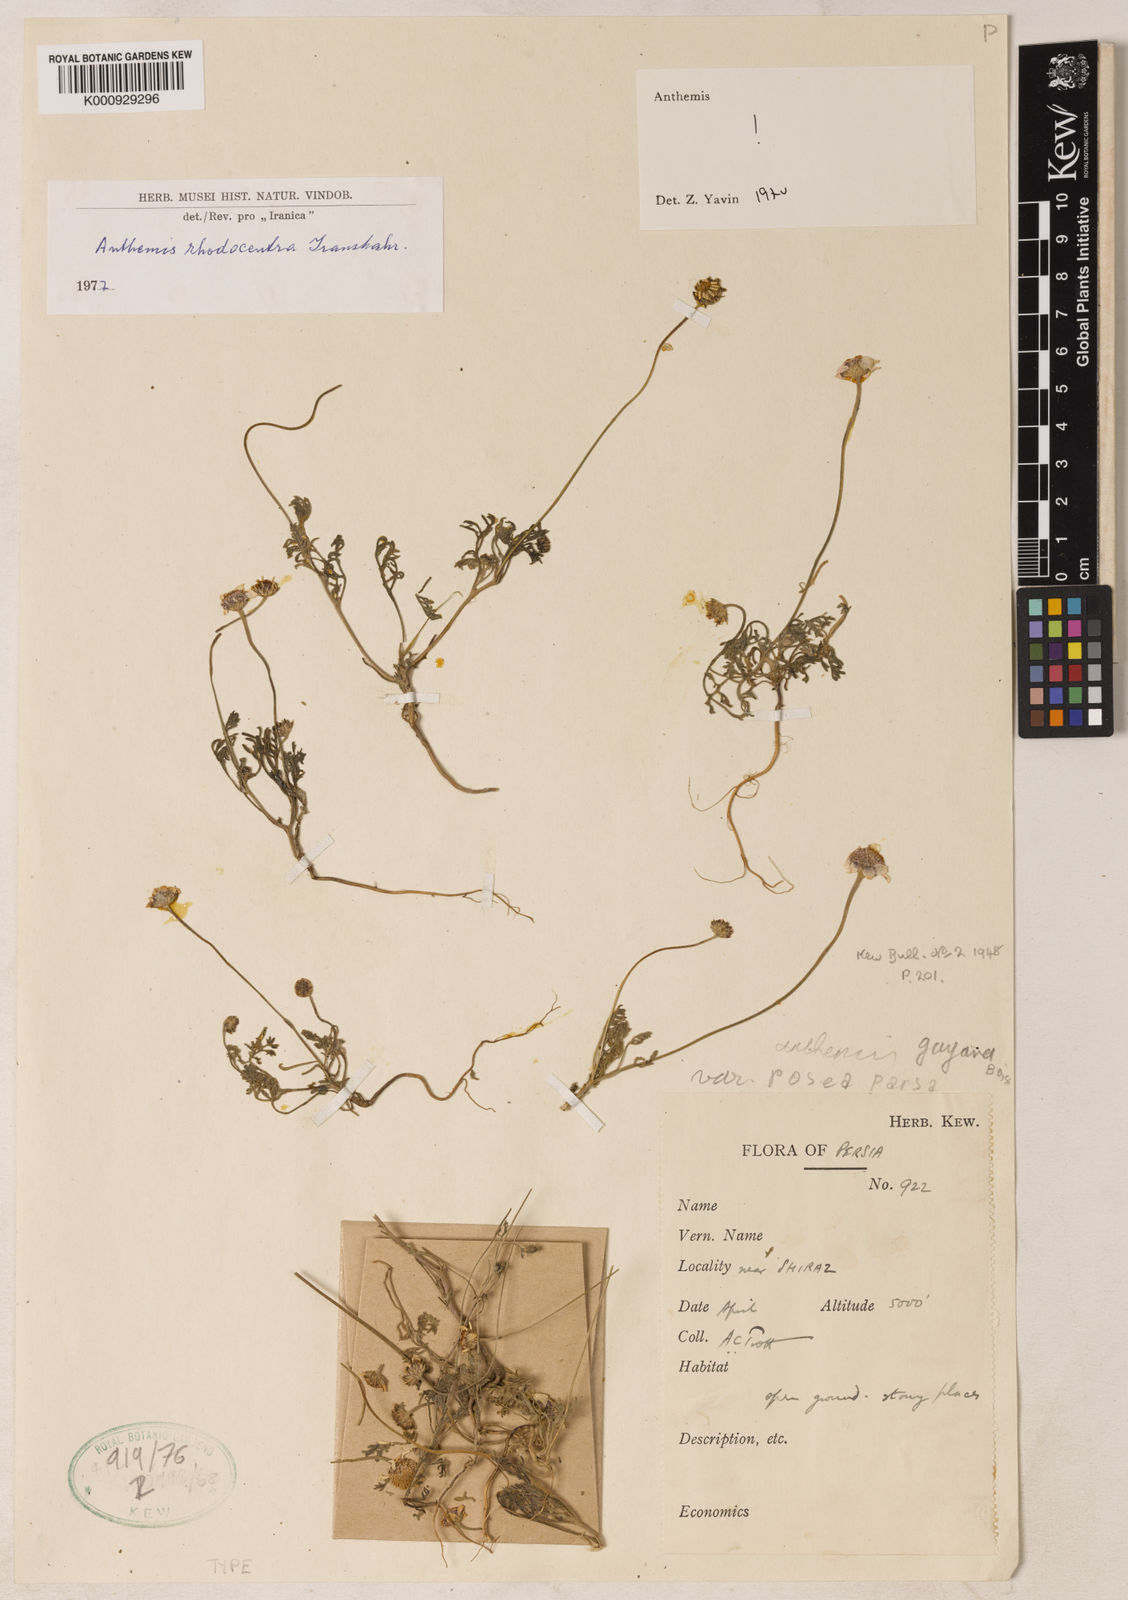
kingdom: Plantae
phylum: Tracheophyta
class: Magnoliopsida
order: Asterales
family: Asteraceae
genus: Anthemis
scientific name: Anthemis gayana
